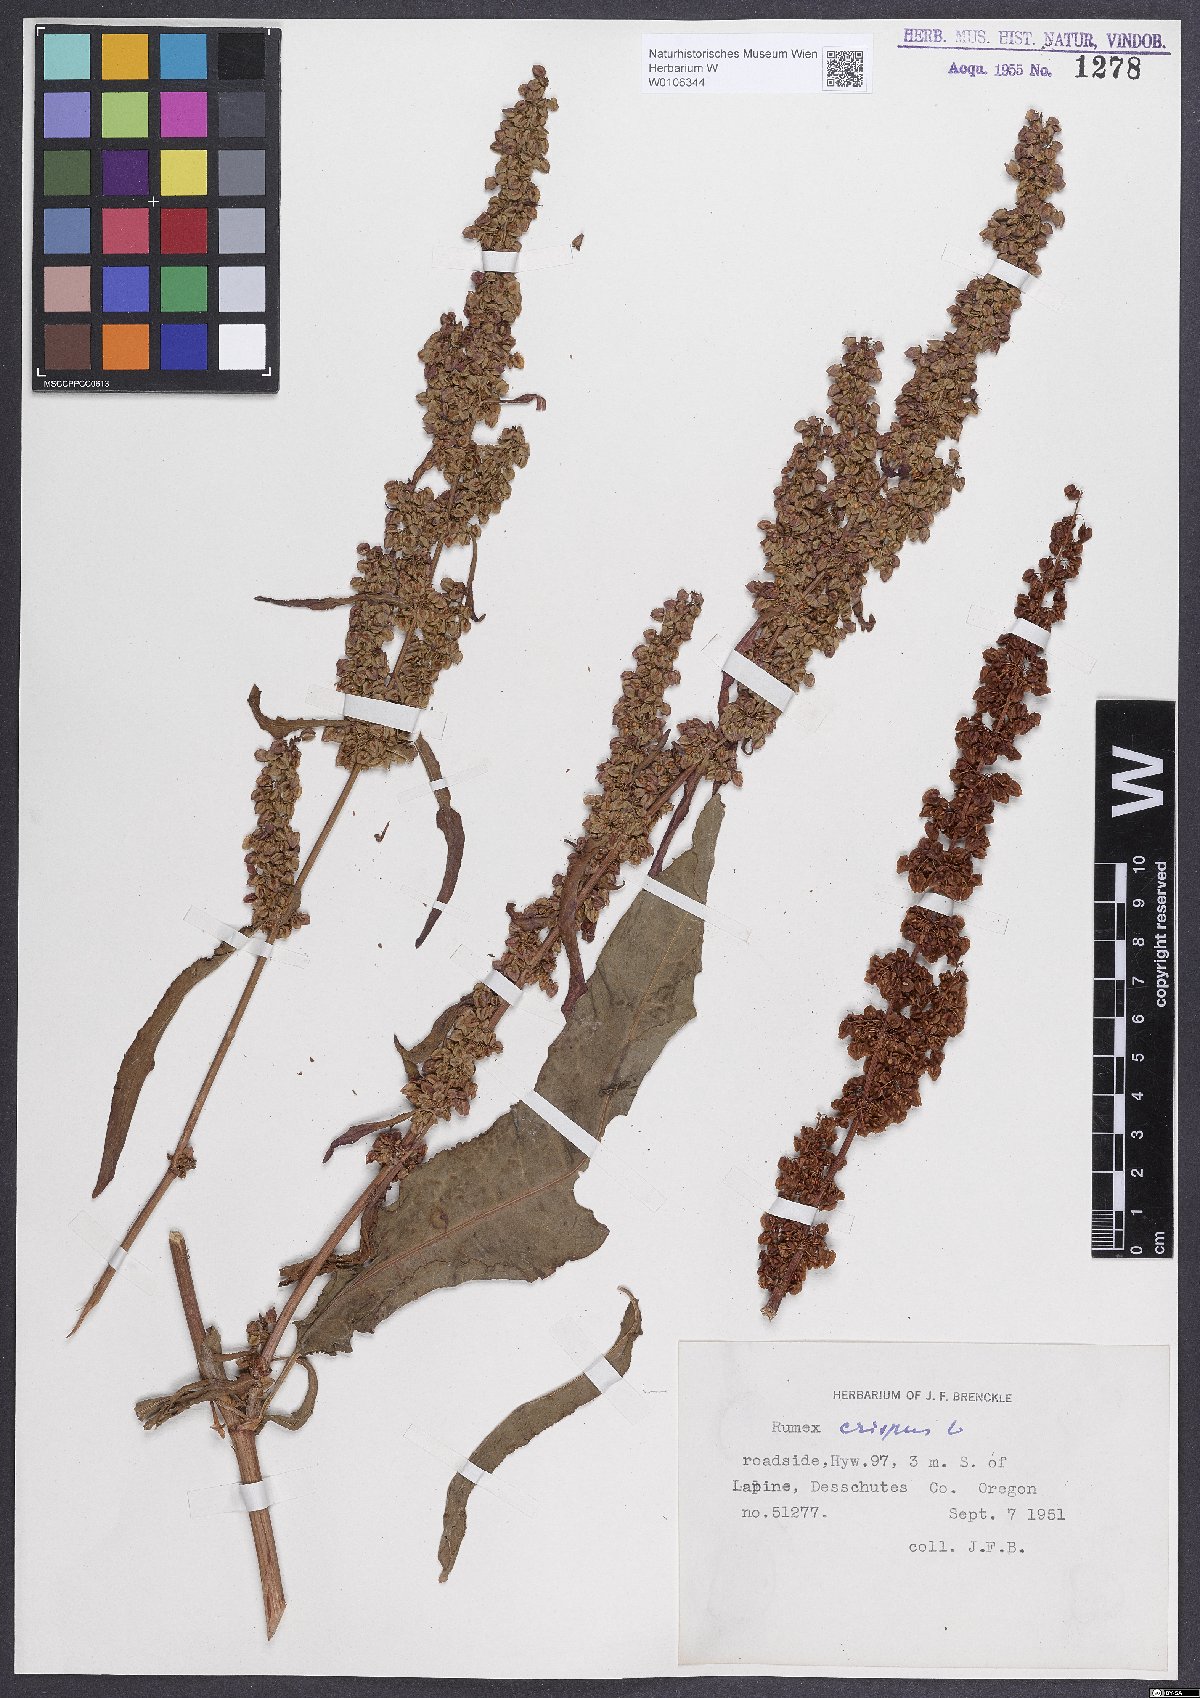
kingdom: Plantae
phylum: Tracheophyta
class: Magnoliopsida
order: Caryophyllales
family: Polygonaceae
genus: Rumex
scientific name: Rumex crispus
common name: Curled dock
